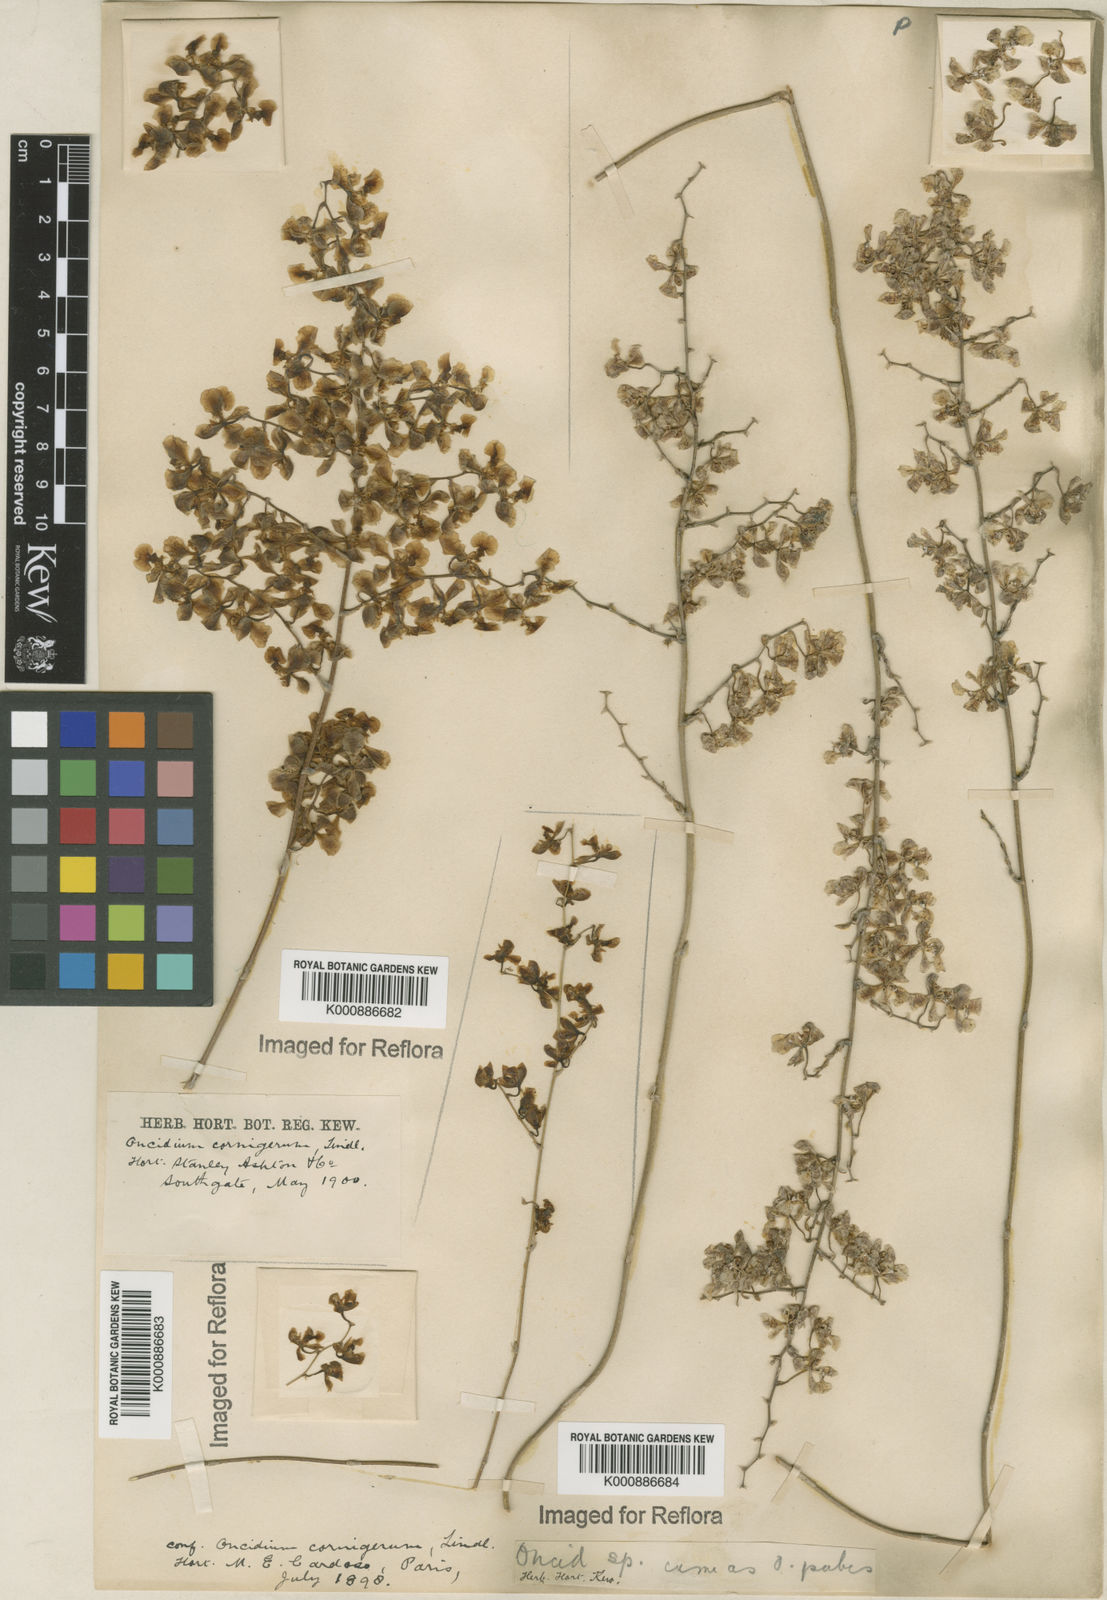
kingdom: Plantae
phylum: Tracheophyta
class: Liliopsida
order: Asparagales
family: Orchidaceae
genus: Gomesa
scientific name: Gomesa cornigera
